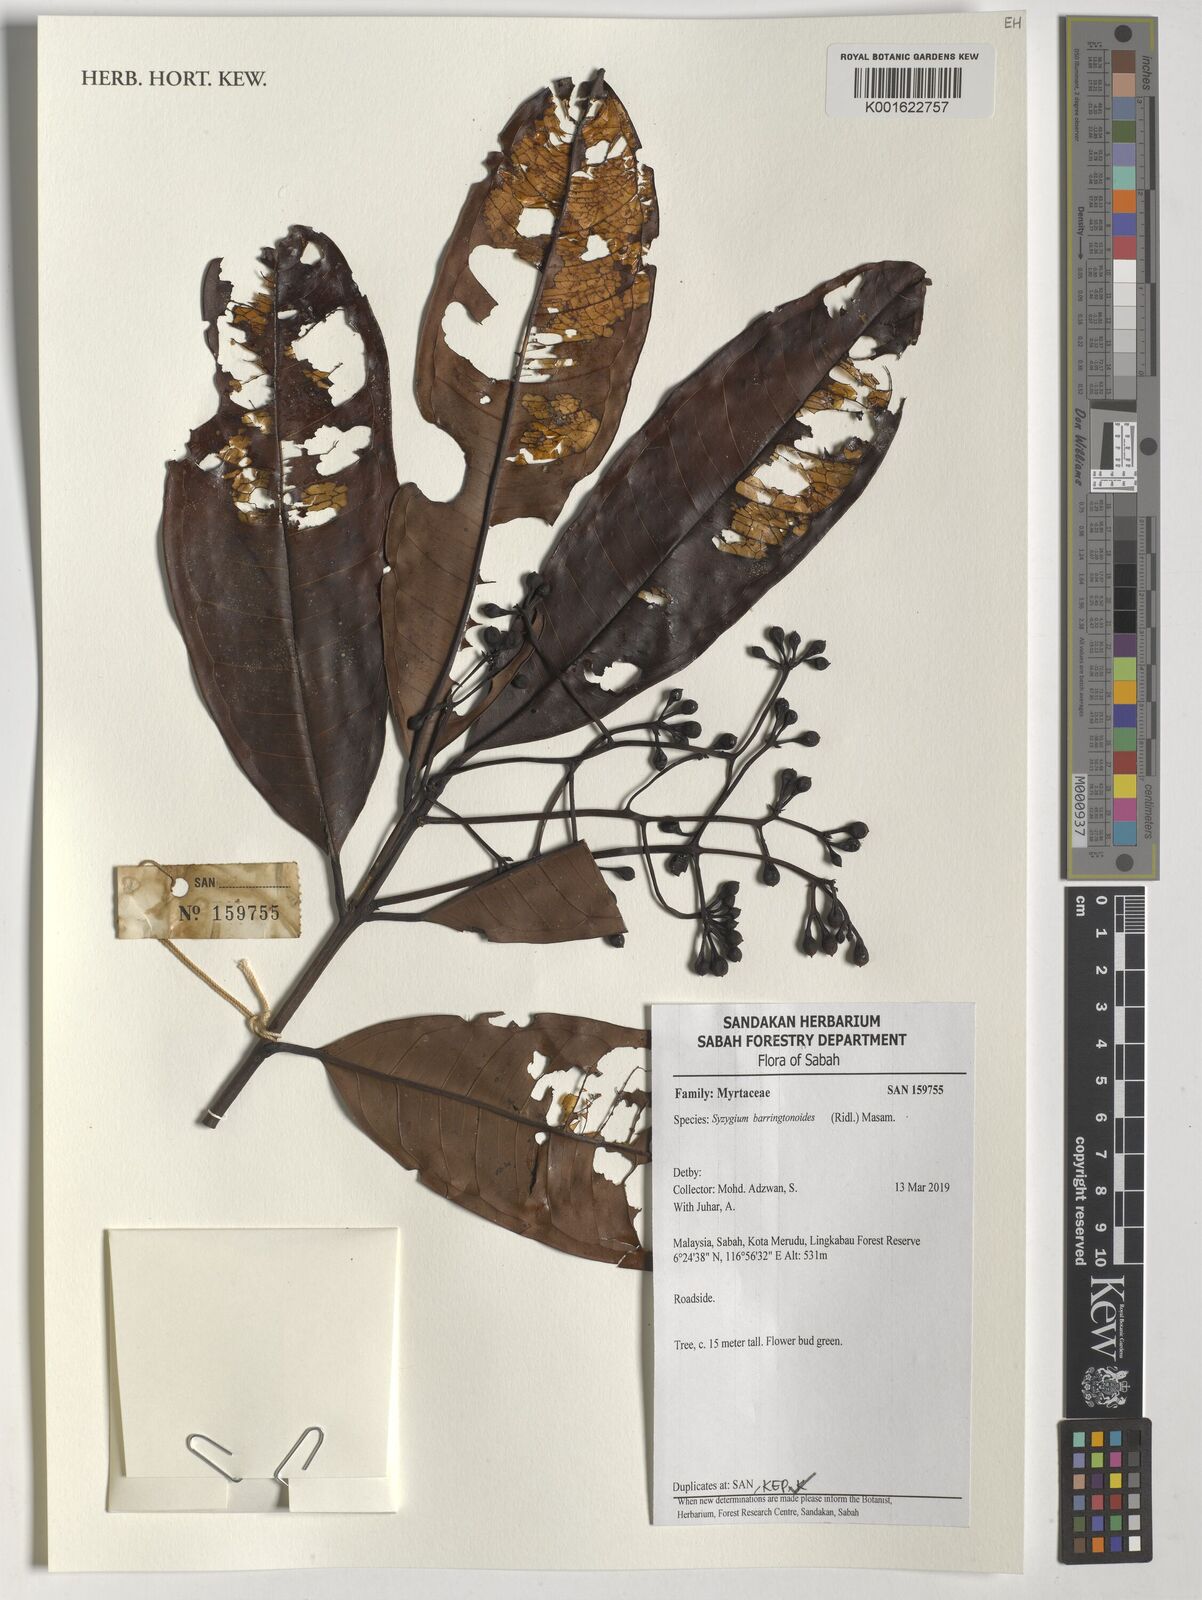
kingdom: Plantae
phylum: Tracheophyta
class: Magnoliopsida
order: Myrtales
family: Myrtaceae
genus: Syzygium
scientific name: Syzygium barringtonioides
